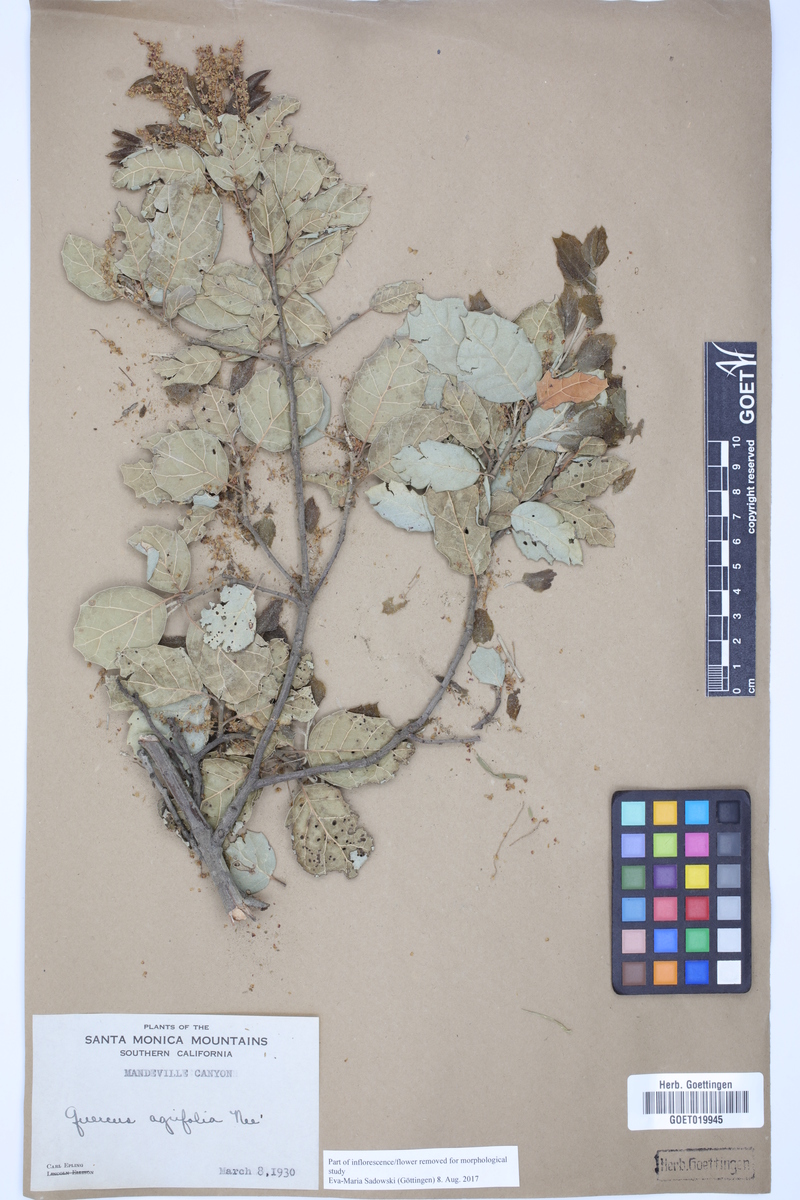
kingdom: Plantae
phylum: Tracheophyta
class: Magnoliopsida
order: Fagales
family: Fagaceae
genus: Quercus
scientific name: Quercus agrifolia
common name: California live oak
